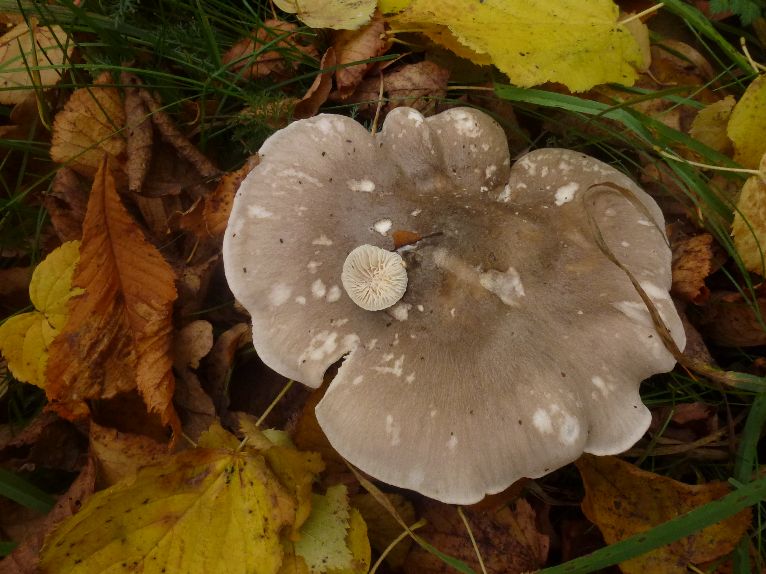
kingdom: Fungi
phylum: Basidiomycota
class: Agaricomycetes
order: Agaricales
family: Tricholomataceae
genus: Clitocybe
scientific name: Clitocybe nebularis
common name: tåge-tragthat
